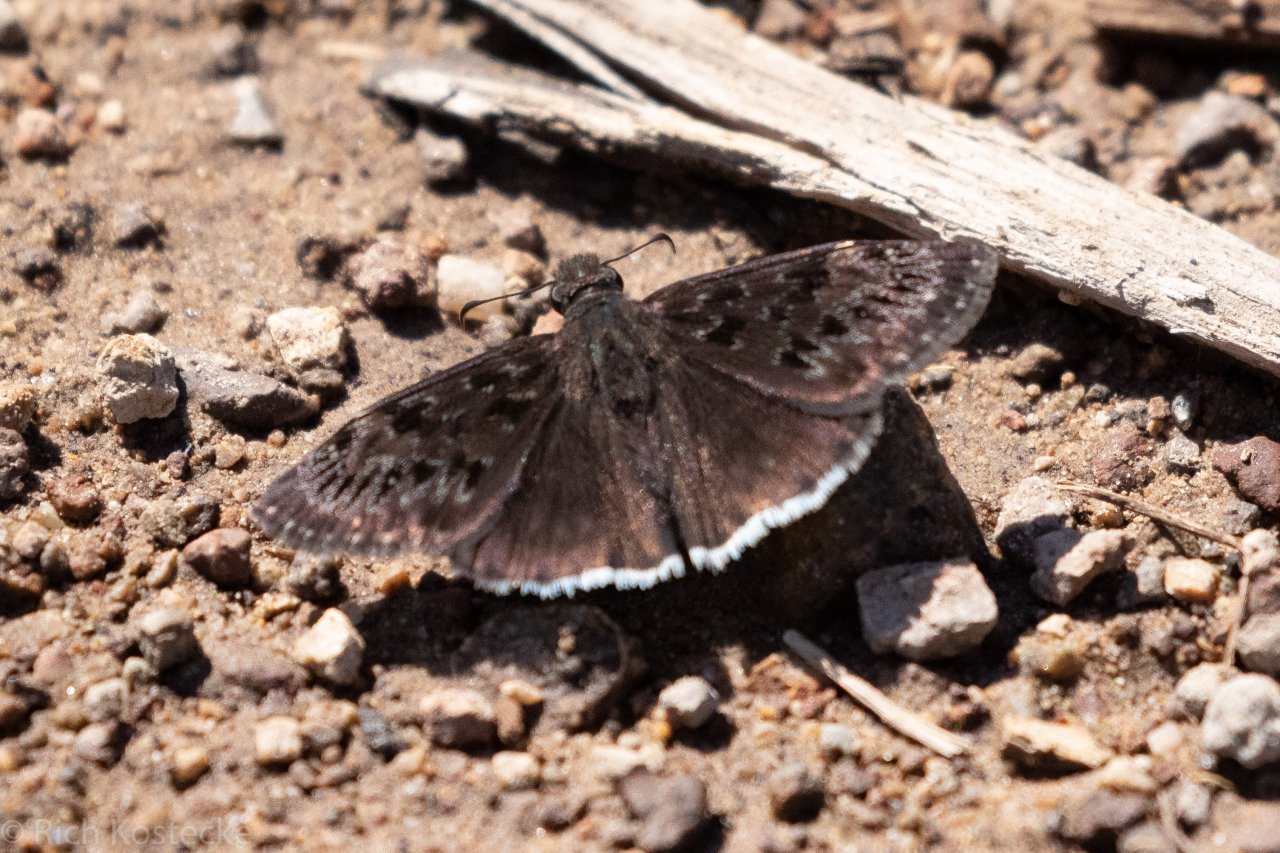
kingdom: Animalia
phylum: Arthropoda
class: Insecta
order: Lepidoptera
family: Hesperiidae
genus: Erynnis
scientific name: Erynnis tristis
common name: Mournful Duskywing
